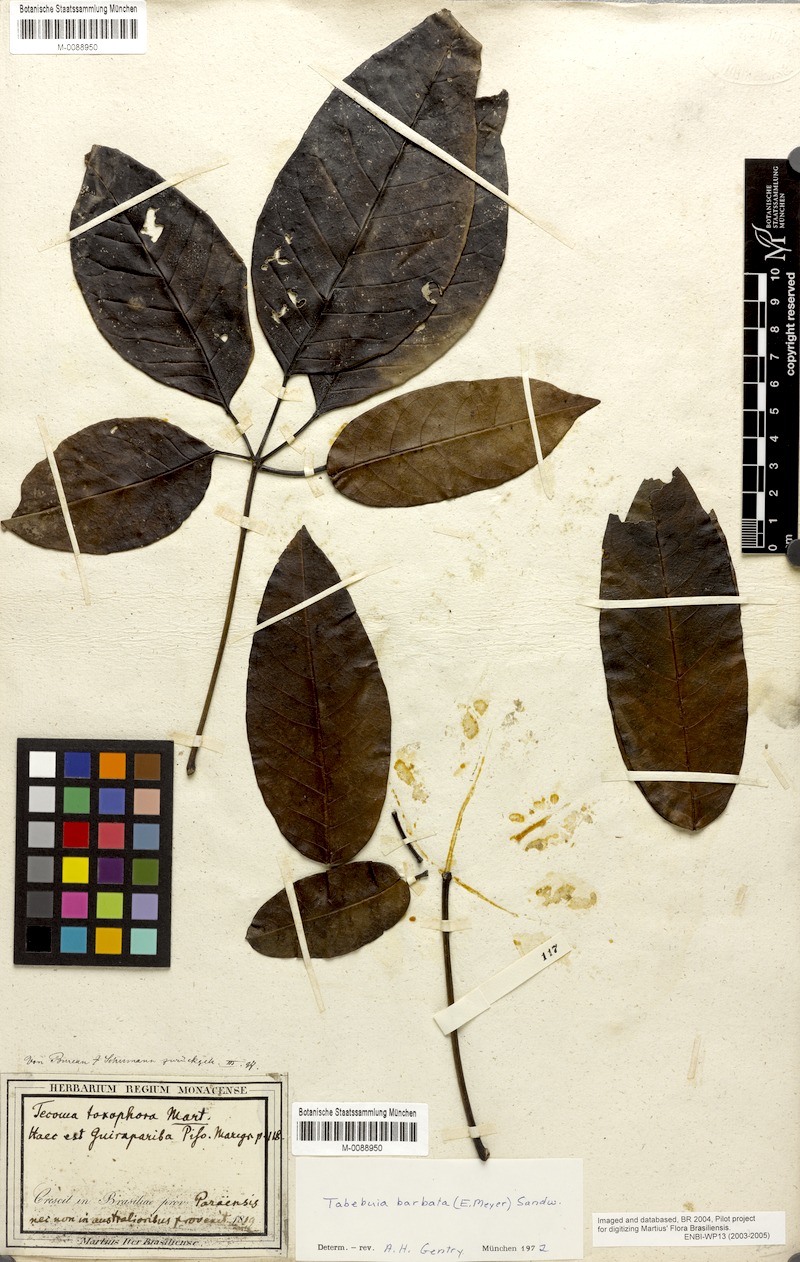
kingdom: Plantae
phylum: Tracheophyta
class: Magnoliopsida
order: Lamiales
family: Bignoniaceae
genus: Handroanthus
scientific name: Handroanthus barbatus
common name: Trumpet trees
